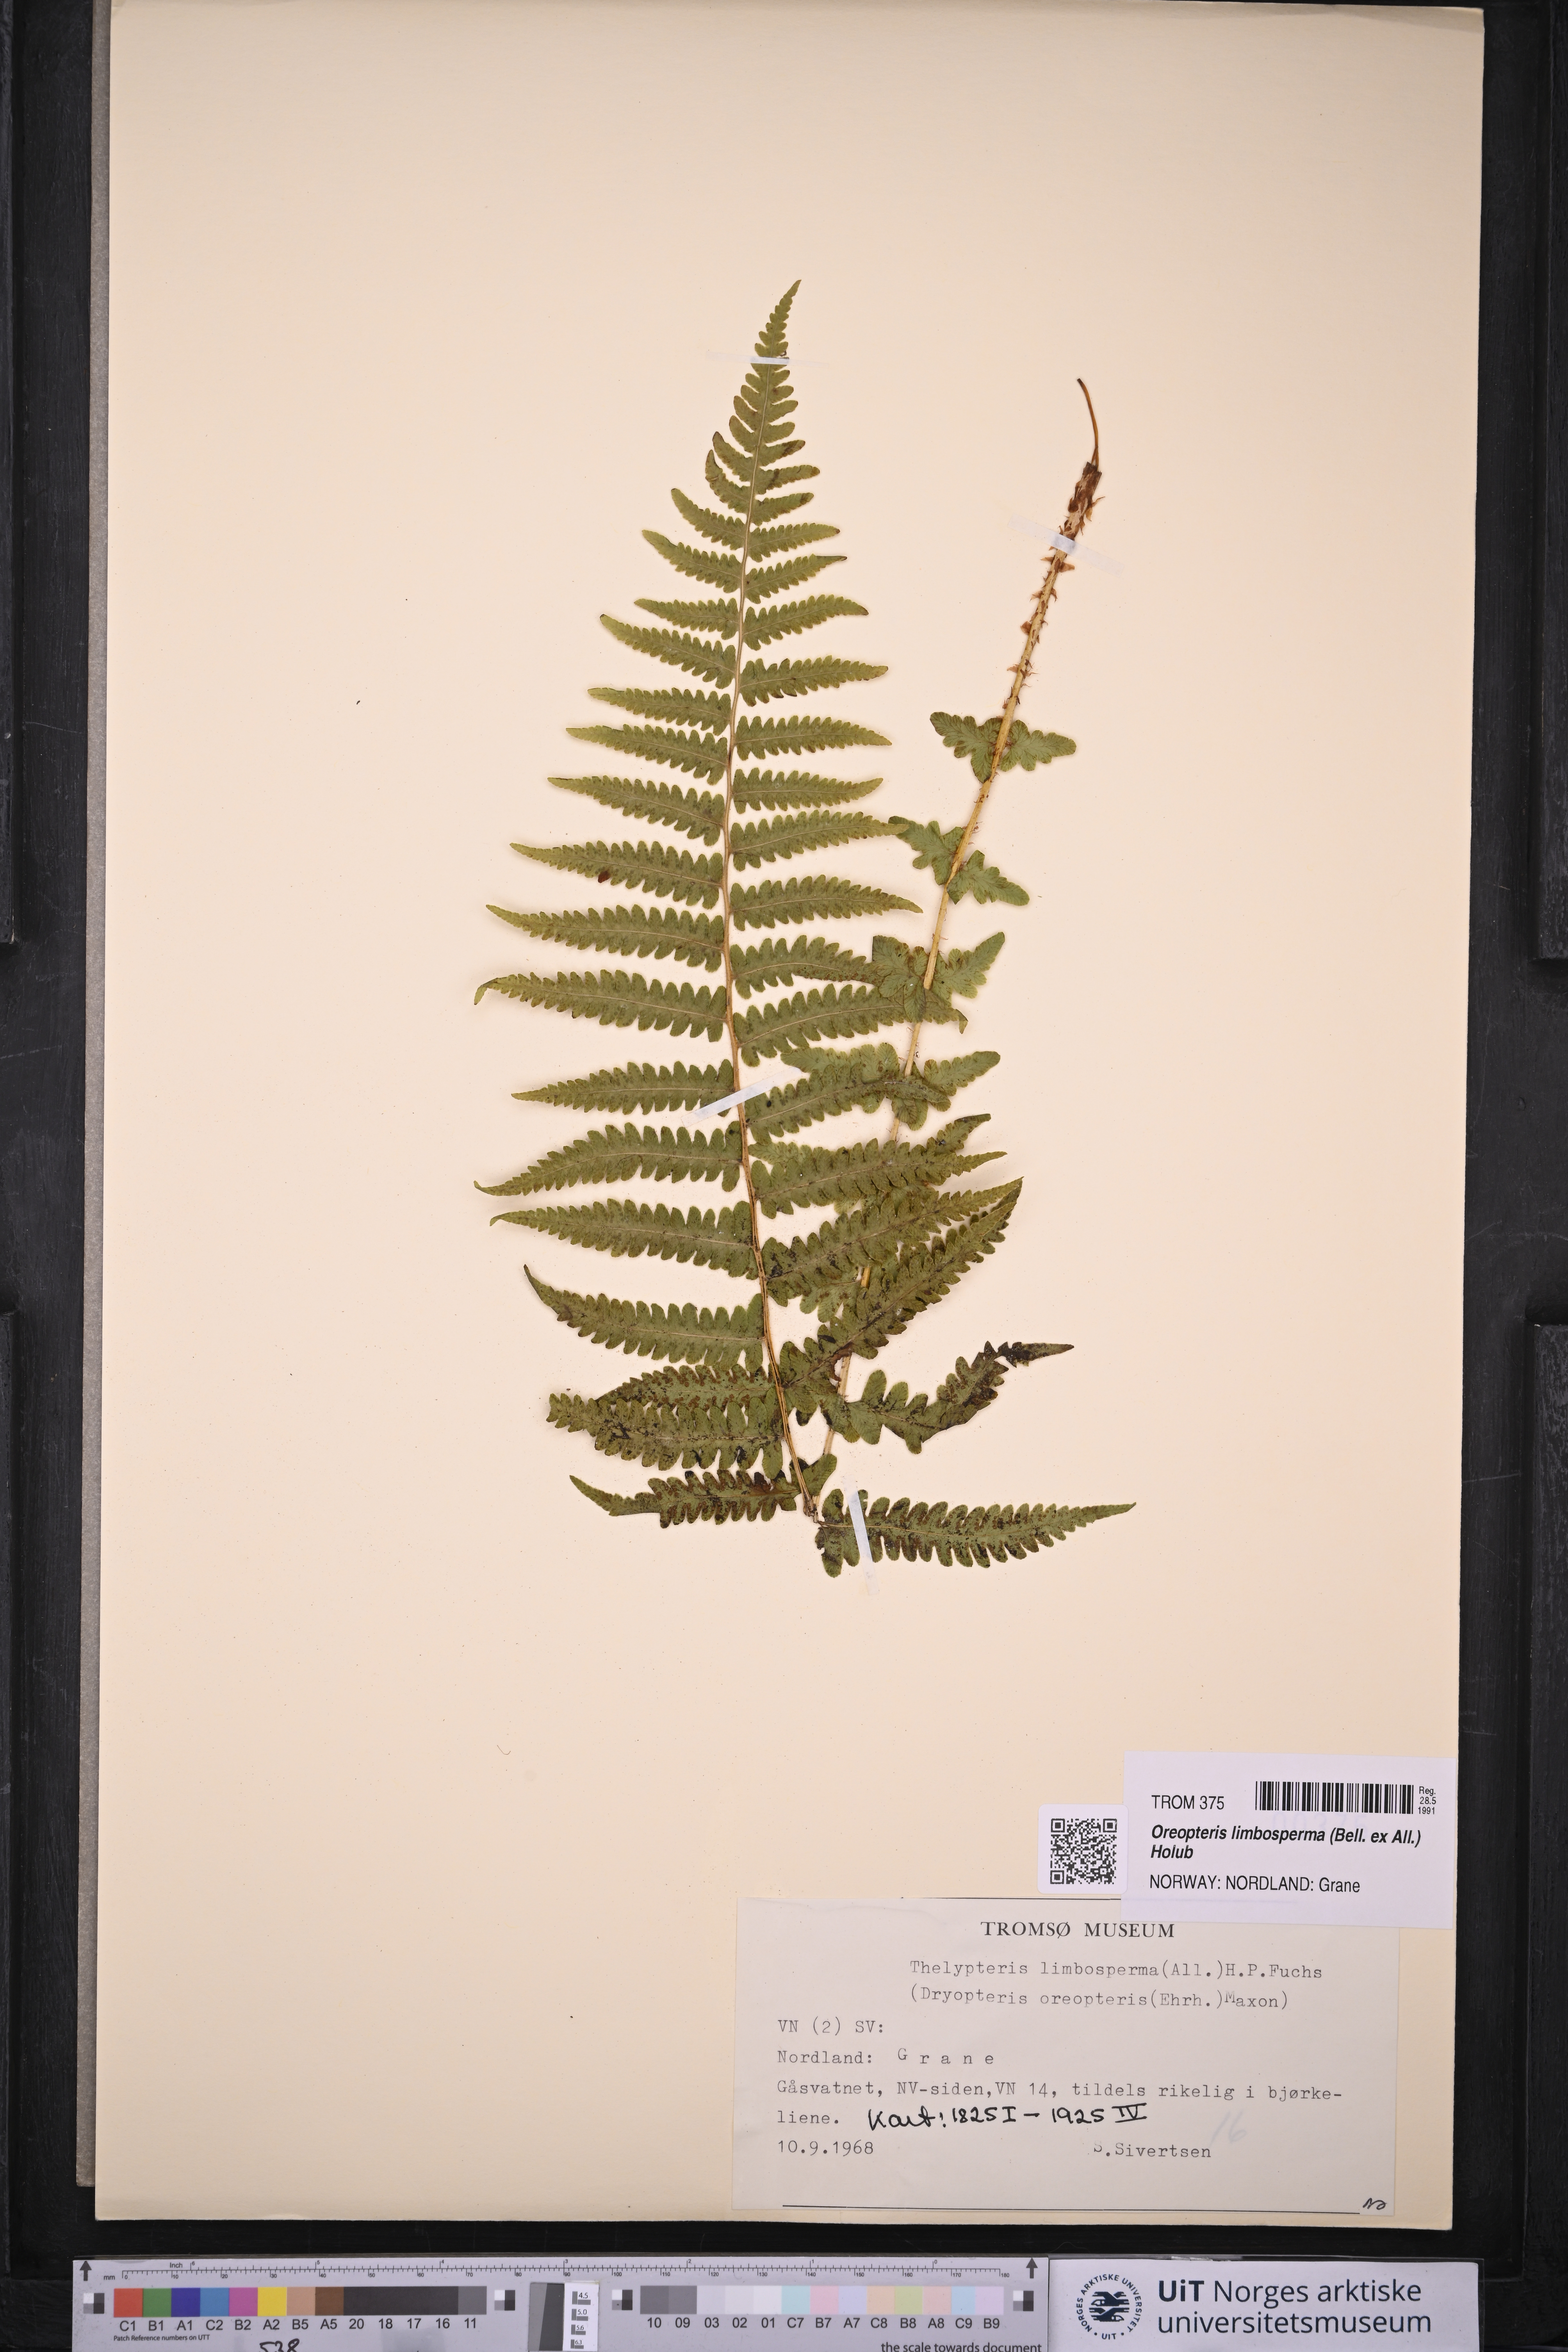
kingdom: Plantae
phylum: Tracheophyta
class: Polypodiopsida
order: Polypodiales
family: Thelypteridaceae
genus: Oreopteris
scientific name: Oreopteris limbosperma
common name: Lemon-scented fern
